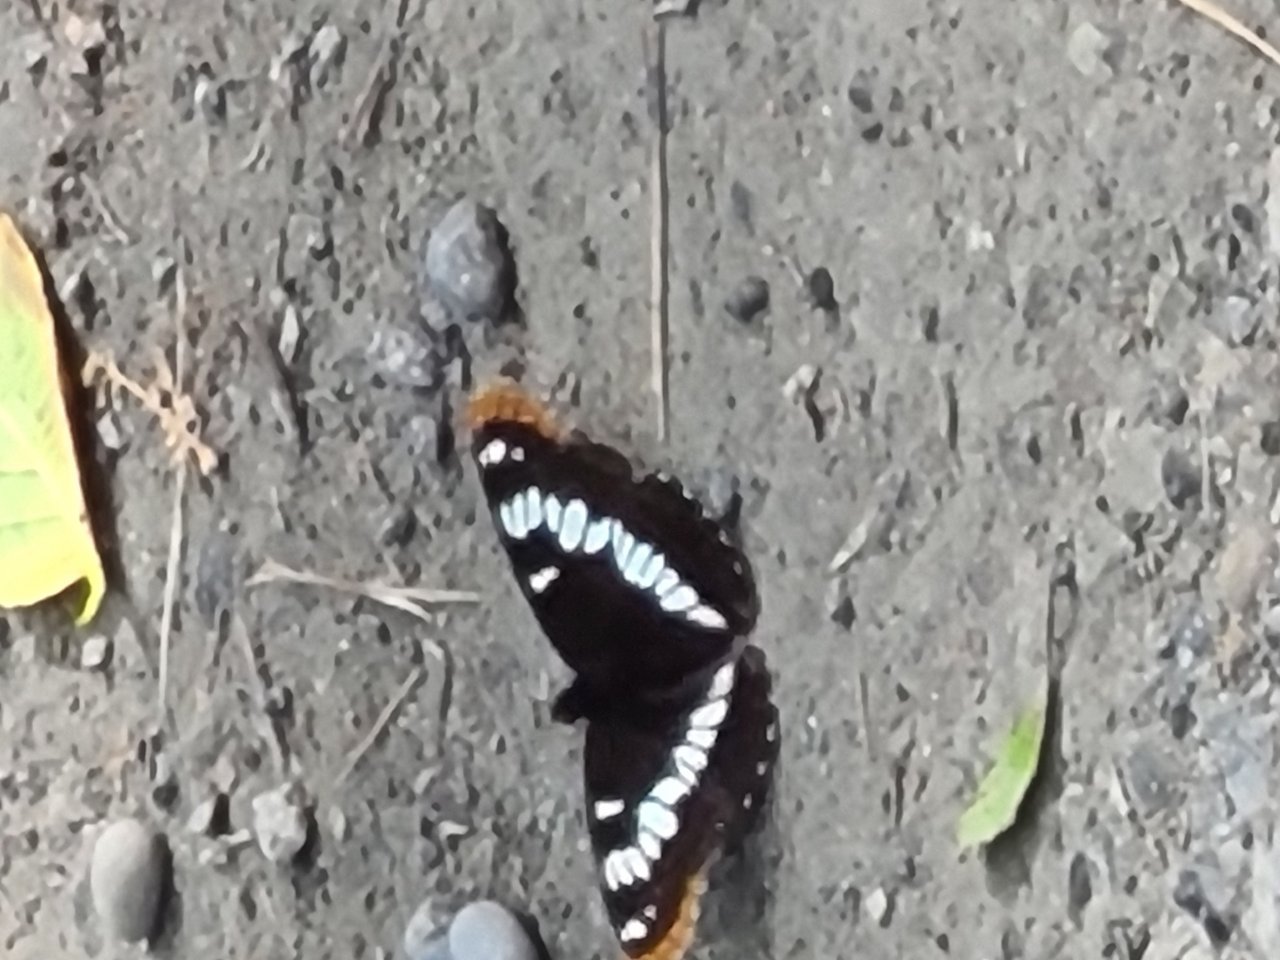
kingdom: Animalia
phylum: Arthropoda
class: Insecta
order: Lepidoptera
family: Nymphalidae
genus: Limenitis
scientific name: Limenitis lorquini
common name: Lorquin's Admiral
